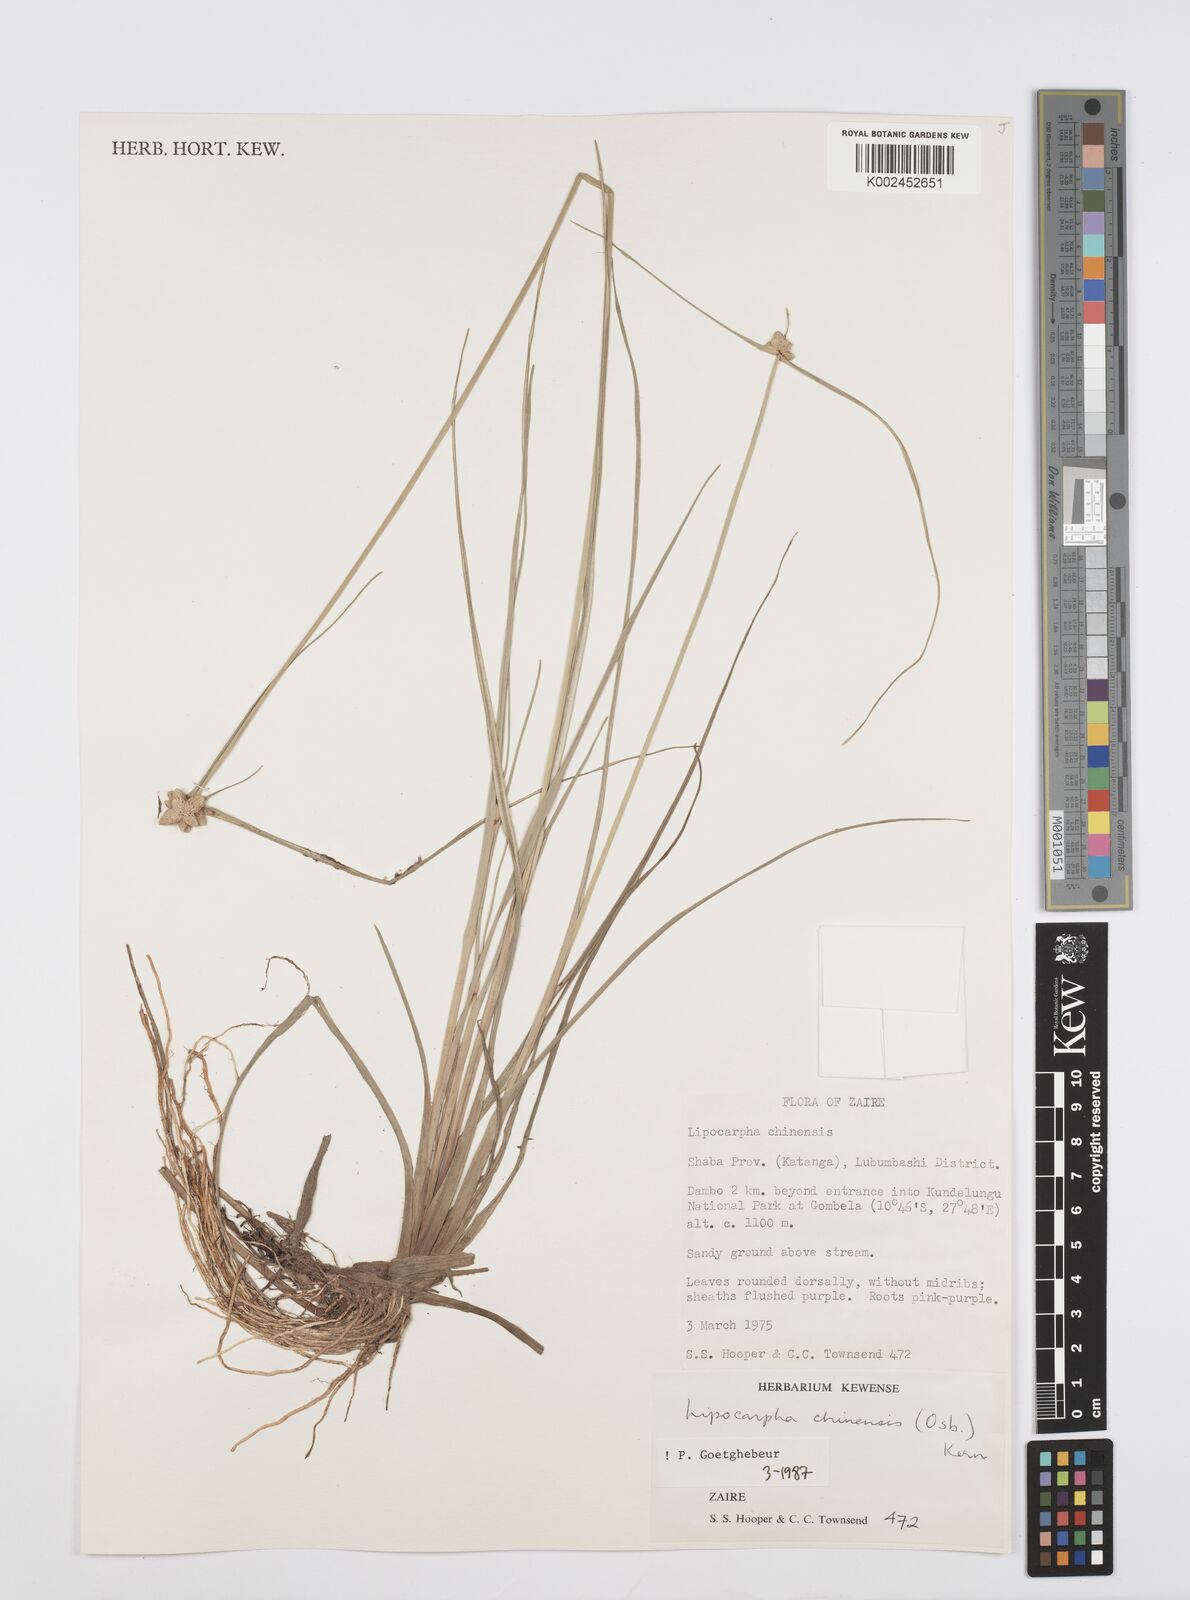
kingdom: Plantae
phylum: Tracheophyta
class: Liliopsida
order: Poales
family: Cyperaceae
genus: Cyperus
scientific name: Cyperus albescens
